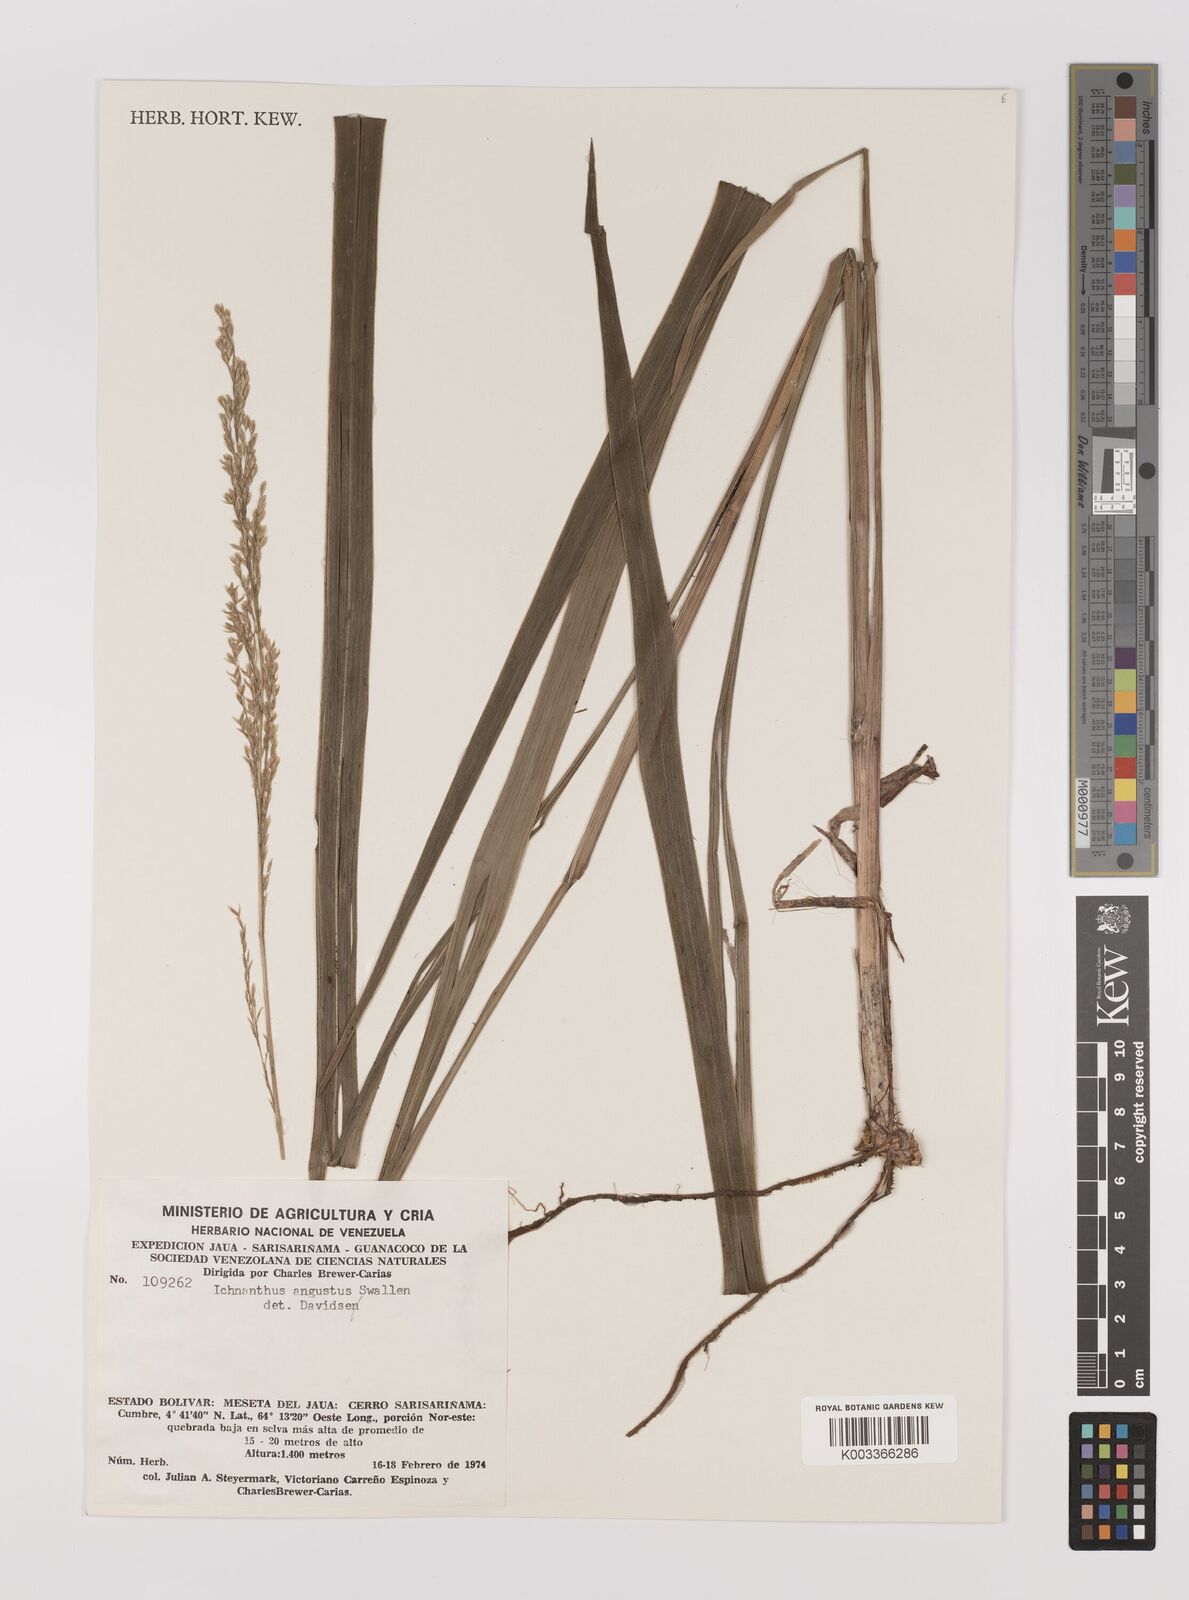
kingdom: Plantae
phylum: Tracheophyta
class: Liliopsida
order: Poales
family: Poaceae
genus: Ichnanthus
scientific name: Ichnanthus ephemeroblepharis
